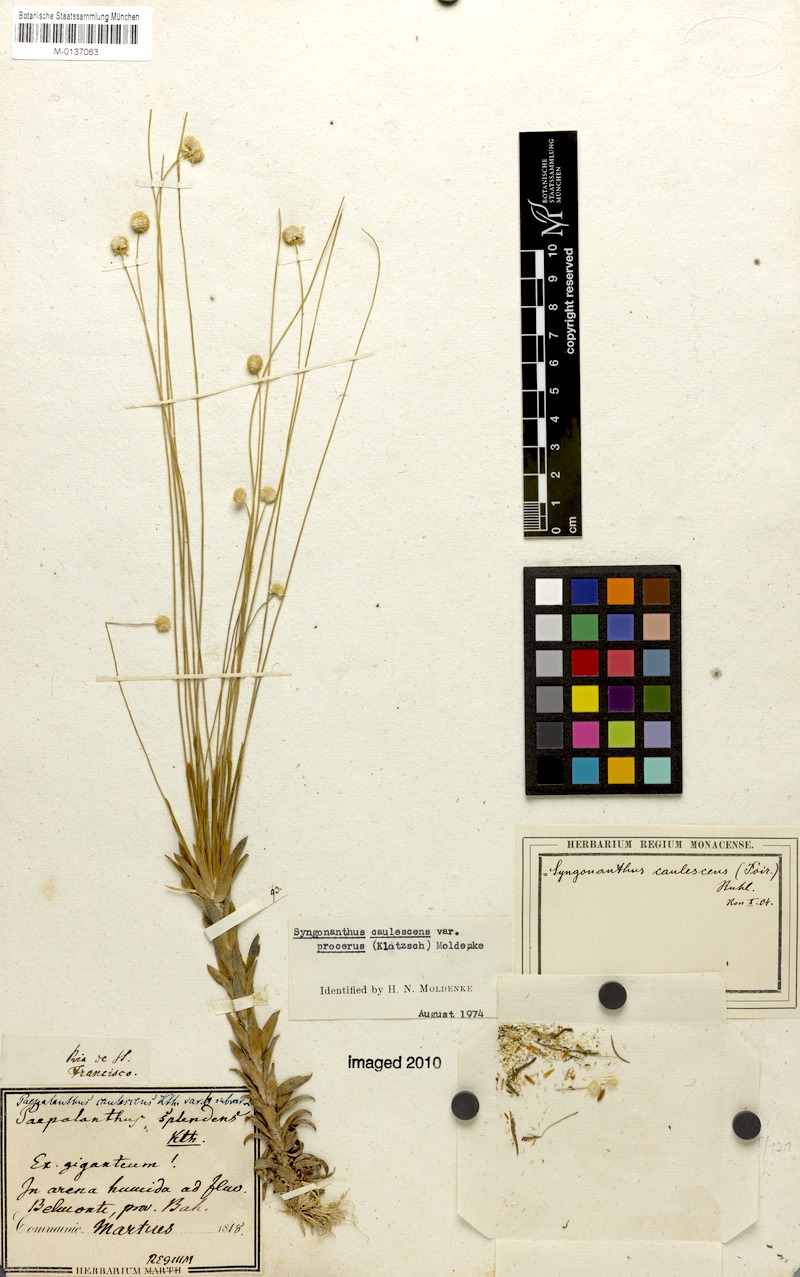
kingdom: Plantae
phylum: Tracheophyta
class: Liliopsida
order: Poales
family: Eriocaulaceae
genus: Syngonanthus
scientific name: Syngonanthus caulescens
